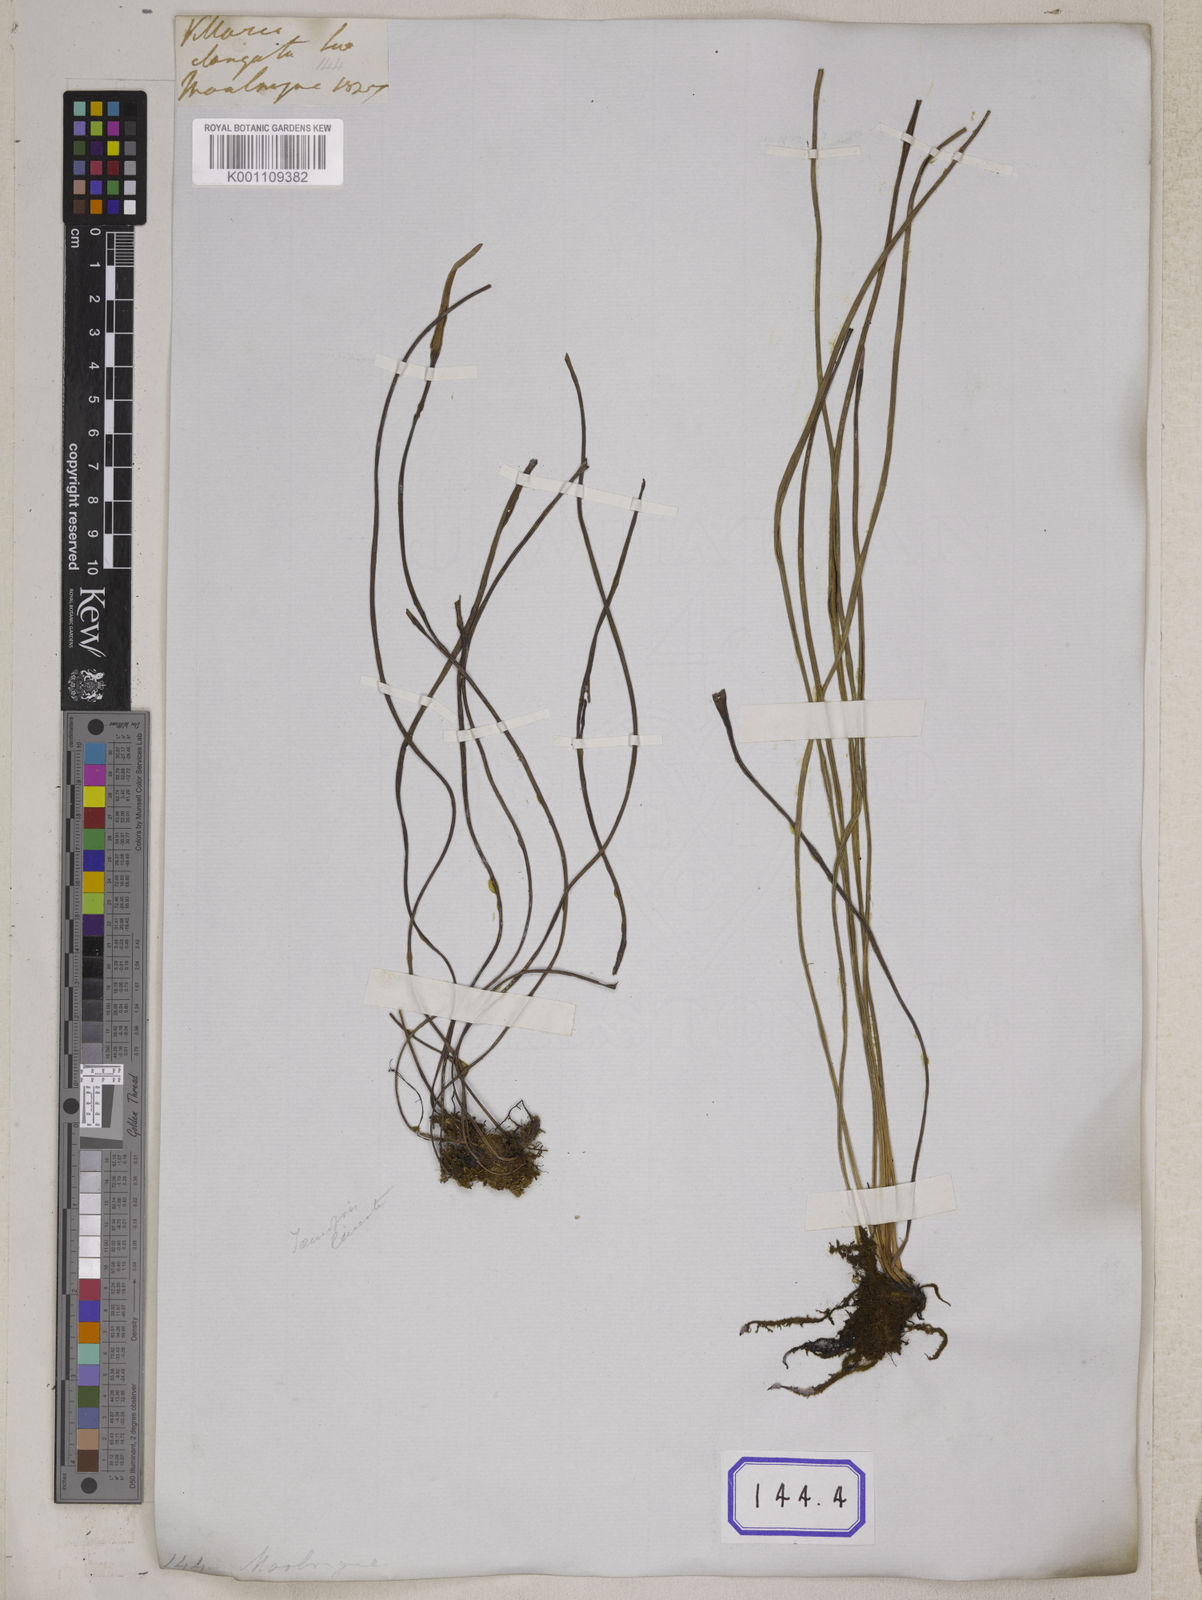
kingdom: Plantae
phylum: Tracheophyta
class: Polypodiopsida
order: Polypodiales
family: Pteridaceae
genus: Haplopteris
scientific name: Haplopteris elongata
